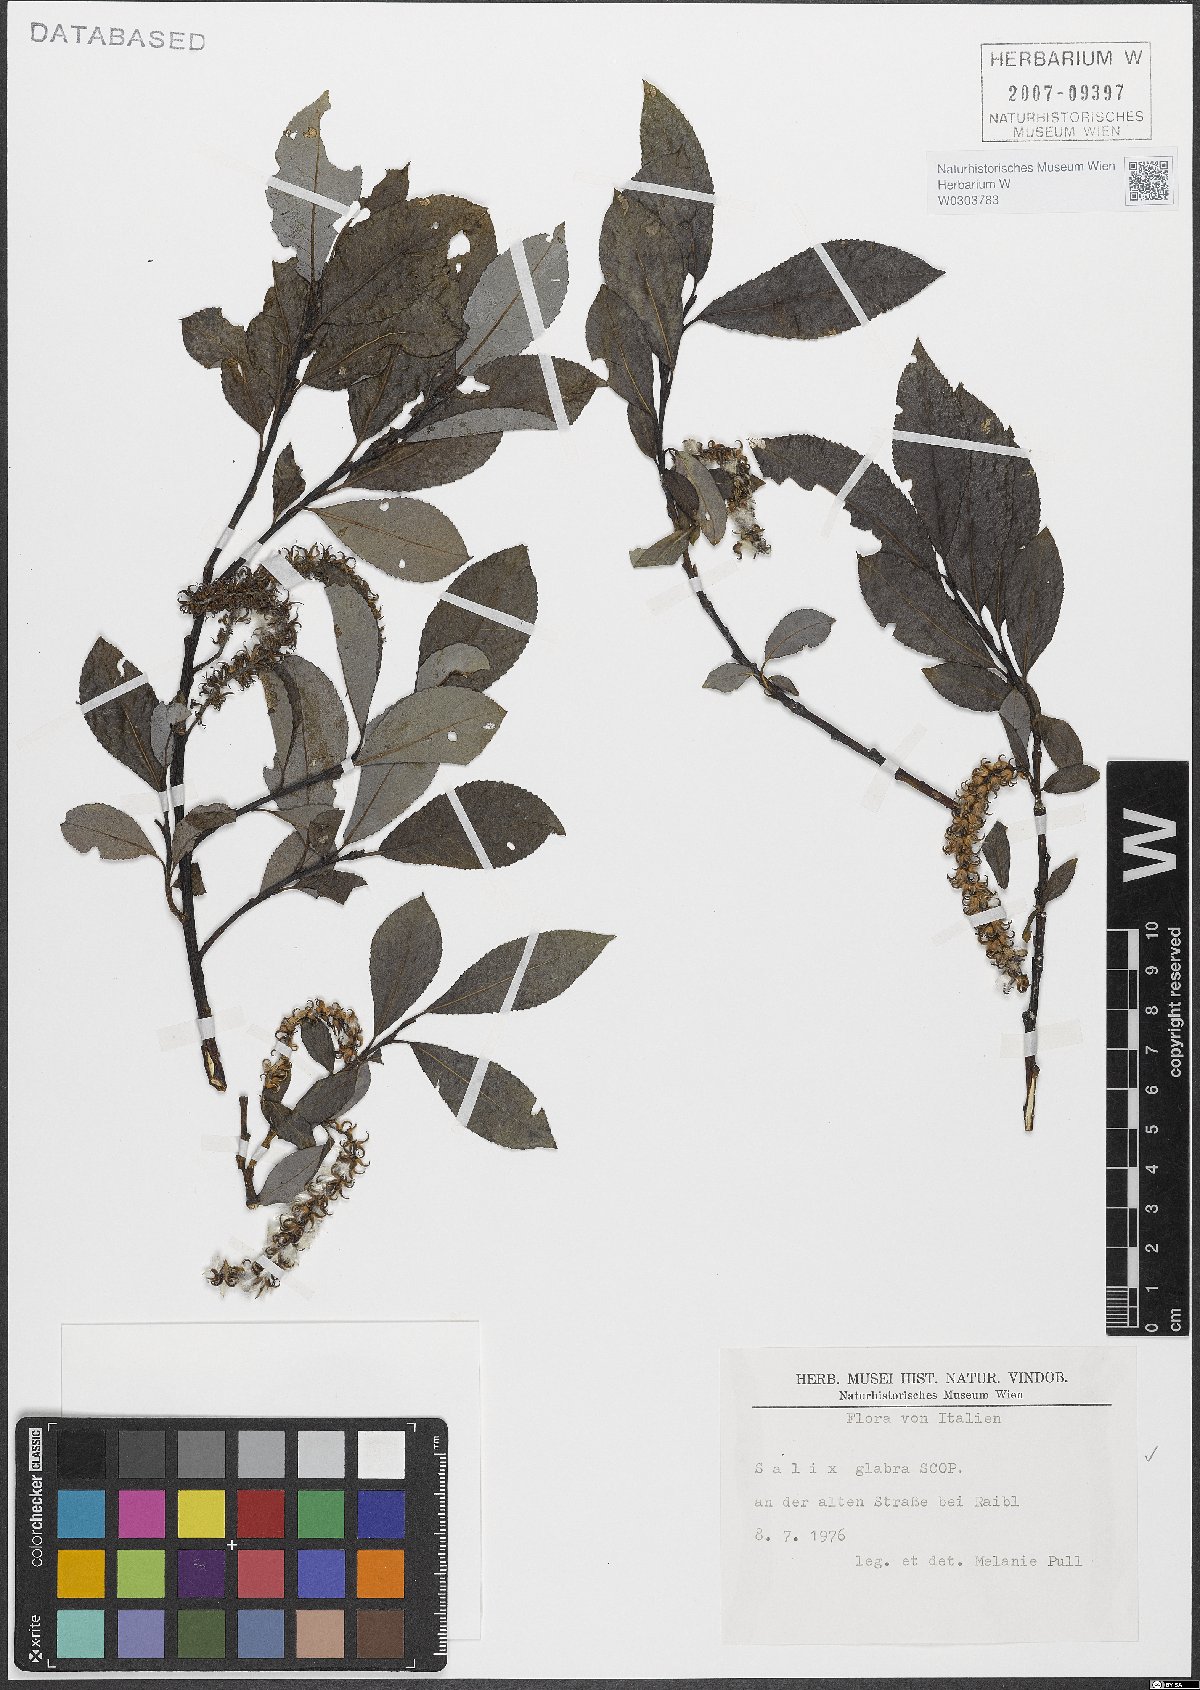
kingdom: Plantae
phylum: Tracheophyta
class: Magnoliopsida
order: Malpighiales
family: Salicaceae
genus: Salix
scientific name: Salix glabra
